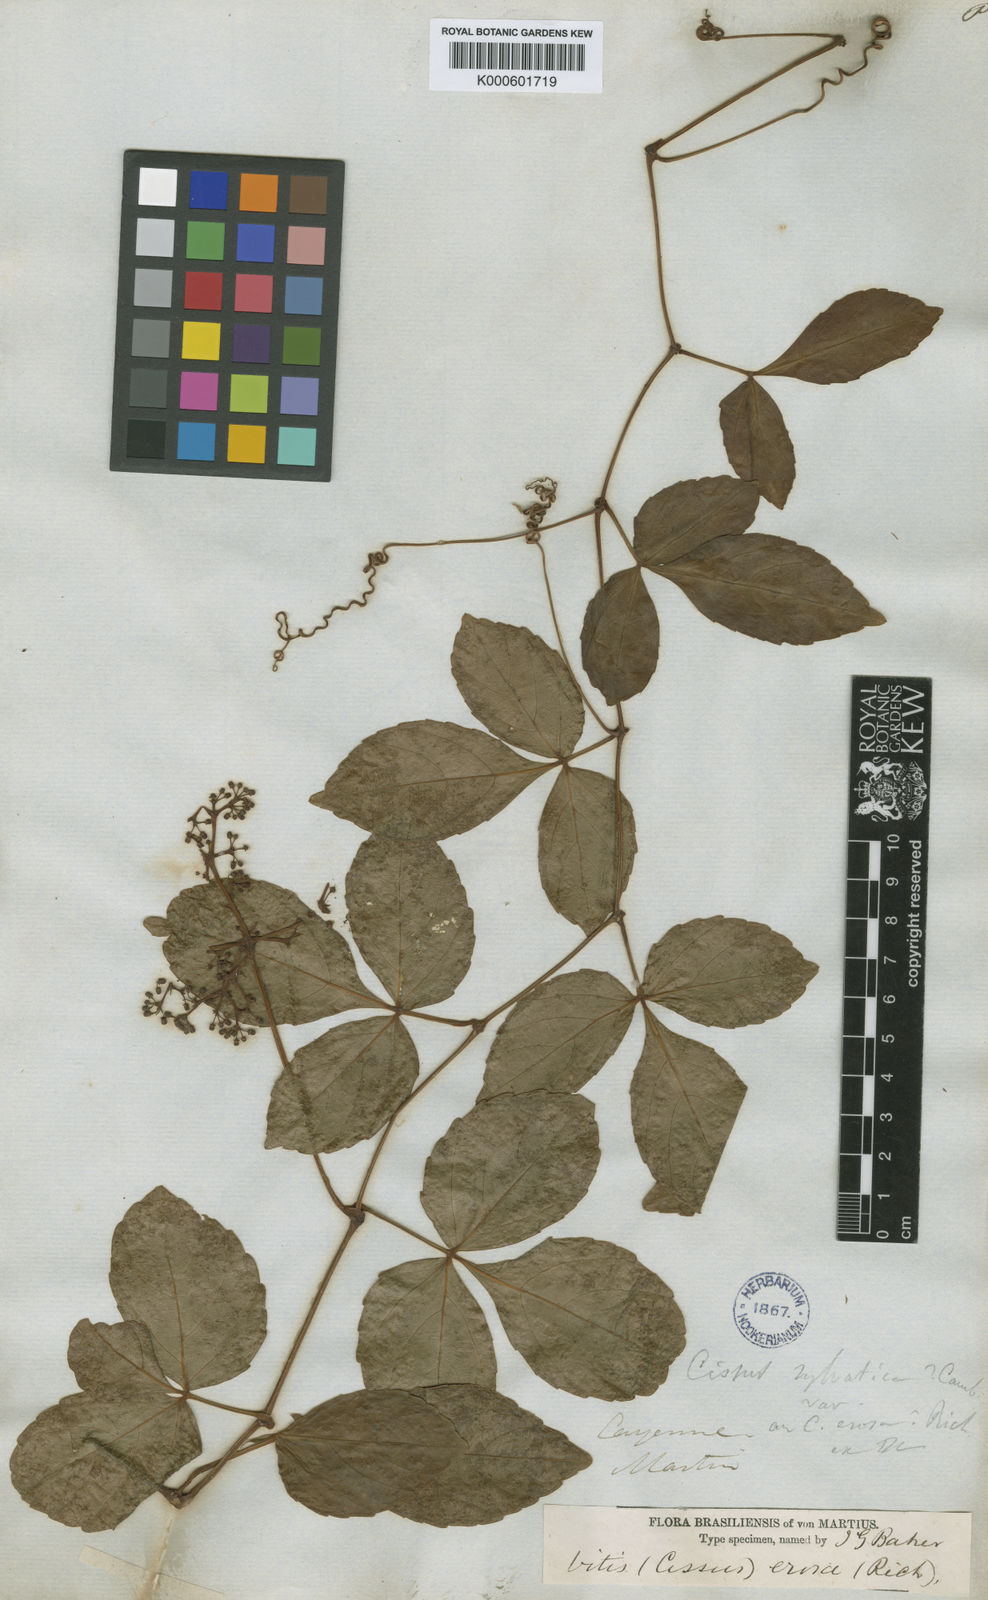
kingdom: Plantae
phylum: Tracheophyta
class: Magnoliopsida
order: Vitales
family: Vitaceae
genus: Cissus
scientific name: Cissus erosa
